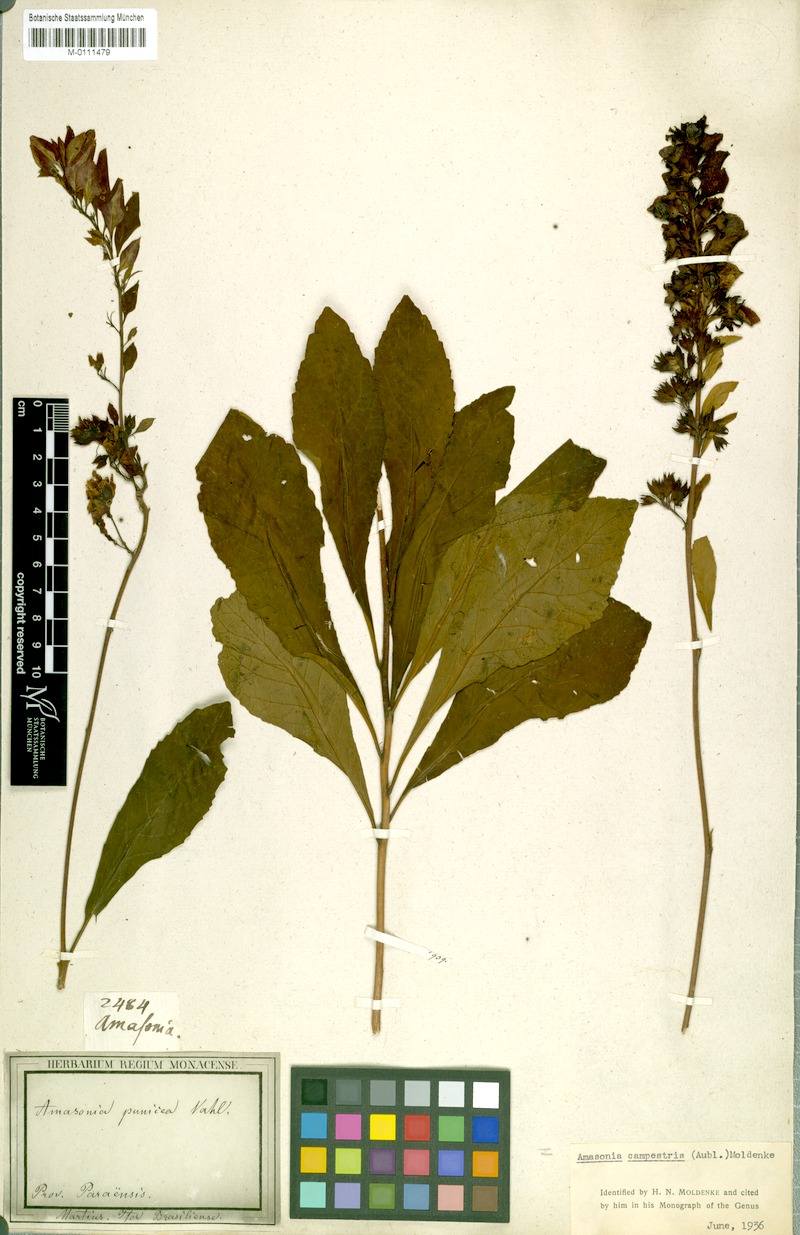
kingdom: Plantae
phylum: Tracheophyta
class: Magnoliopsida
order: Lamiales
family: Lamiaceae
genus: Amasonia
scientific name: Amasonia campestris
